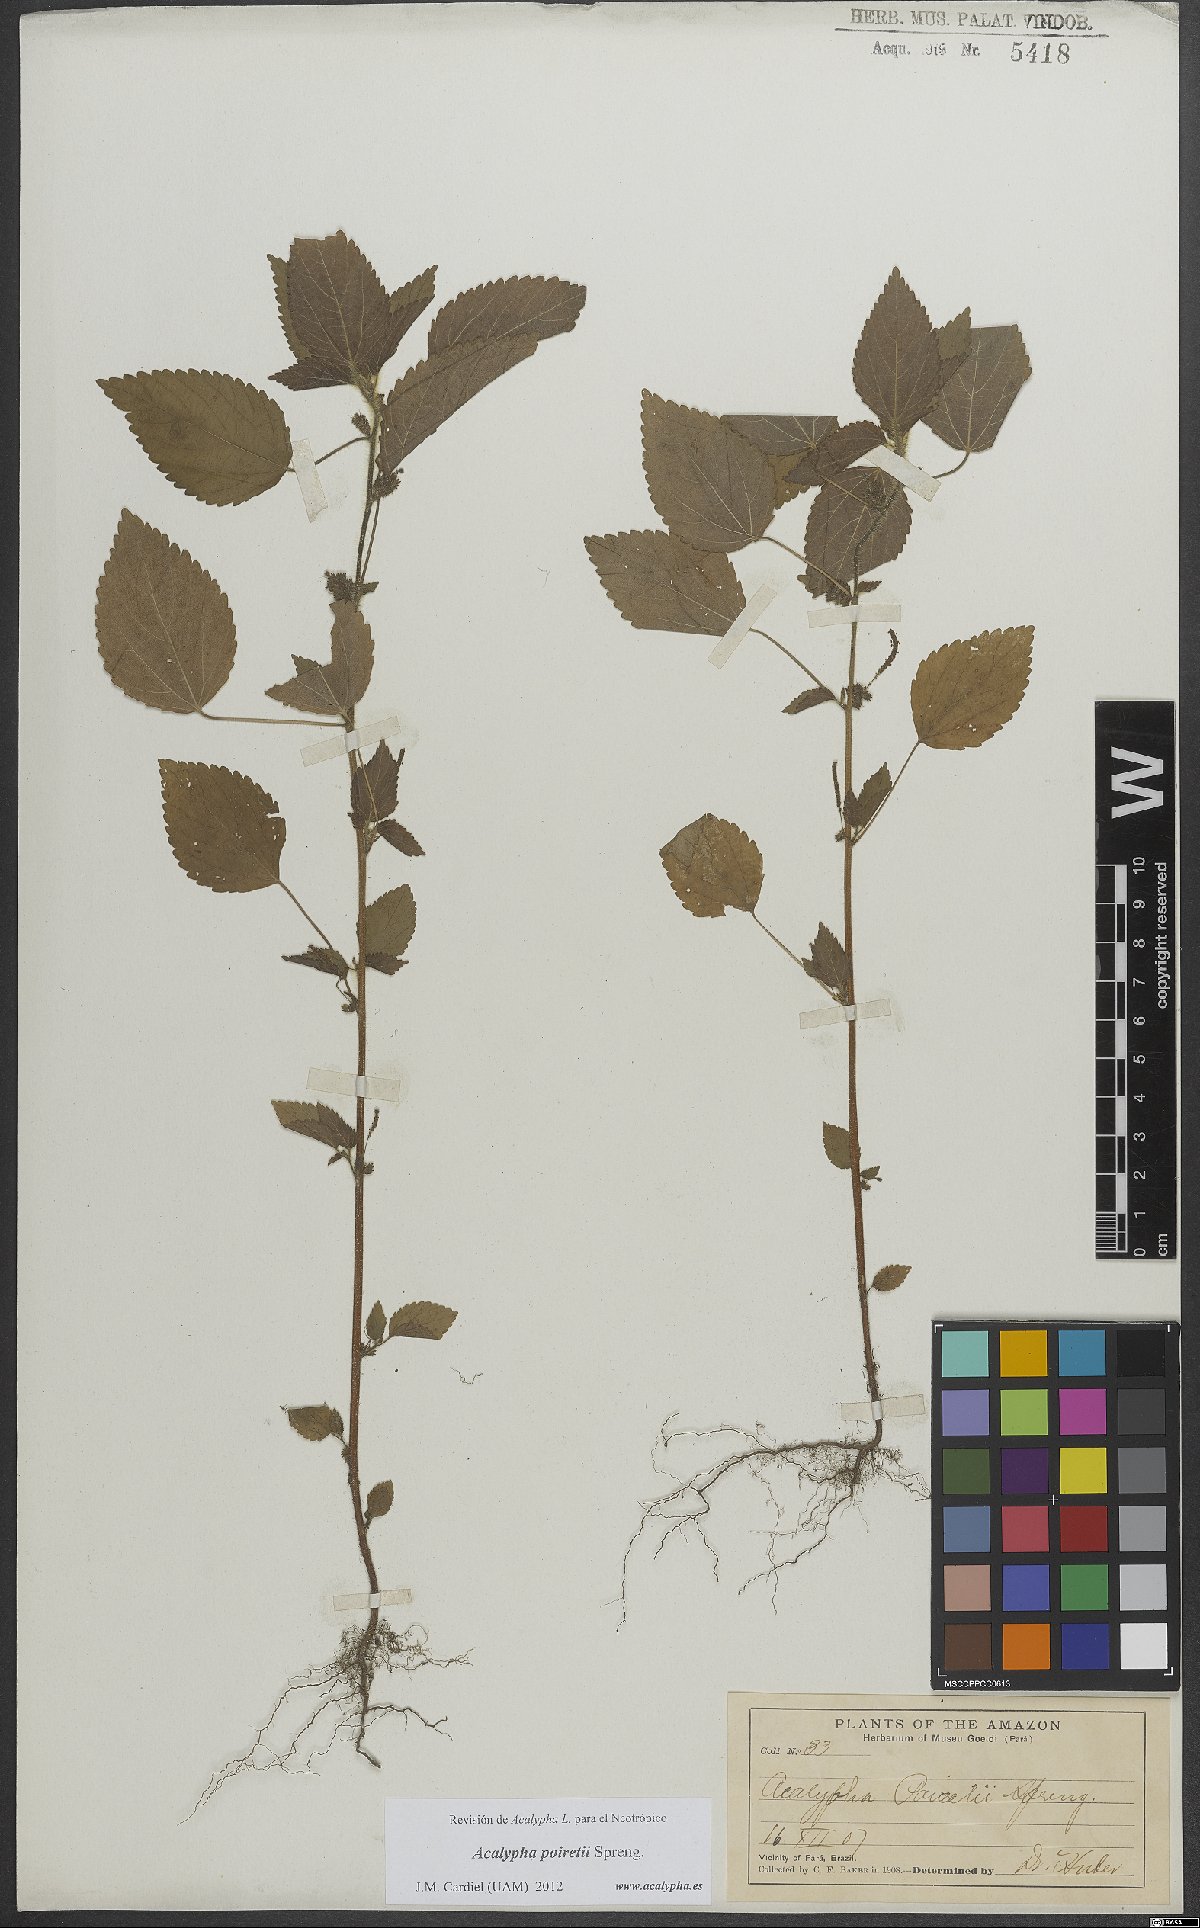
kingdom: Plantae
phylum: Tracheophyta
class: Magnoliopsida
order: Malpighiales
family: Euphorbiaceae
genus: Acalypha
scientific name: Acalypha poiretii
